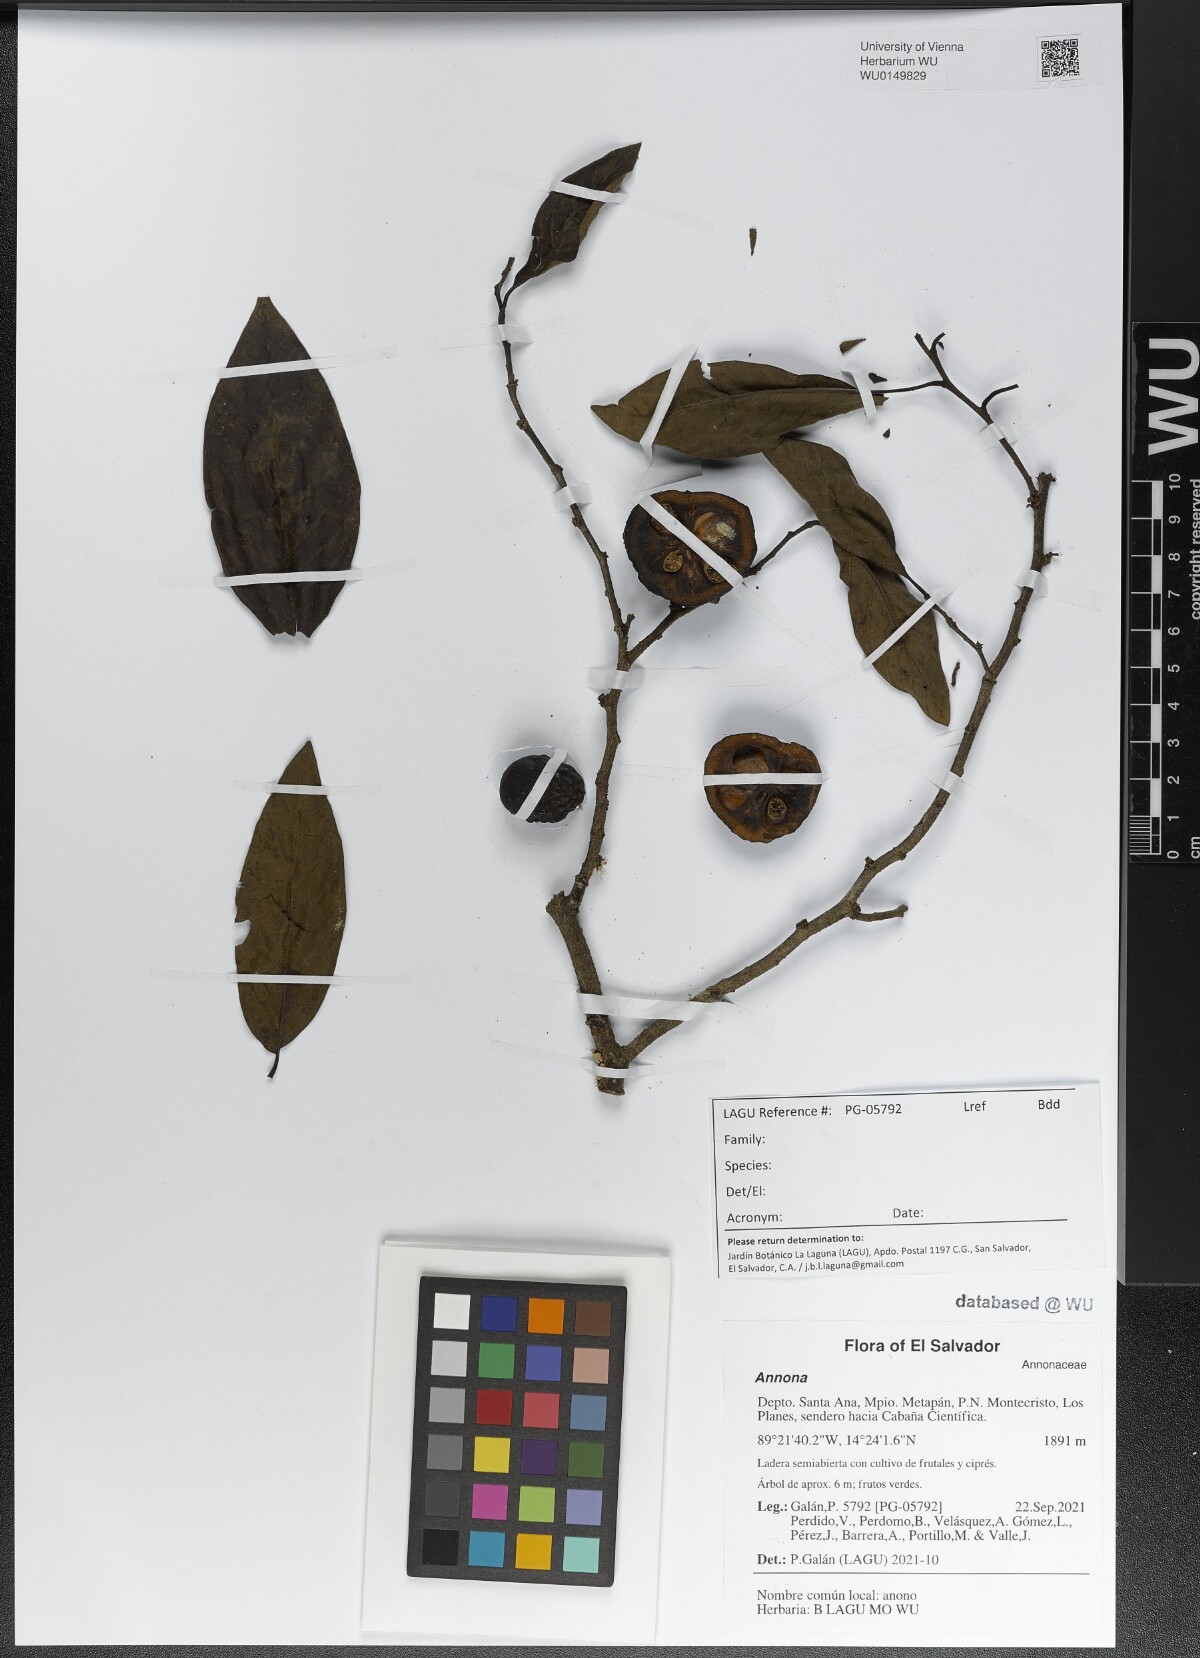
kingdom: Plantae
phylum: Tracheophyta
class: Magnoliopsida
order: Magnoliales
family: Annonaceae
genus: Annona
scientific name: Annona
